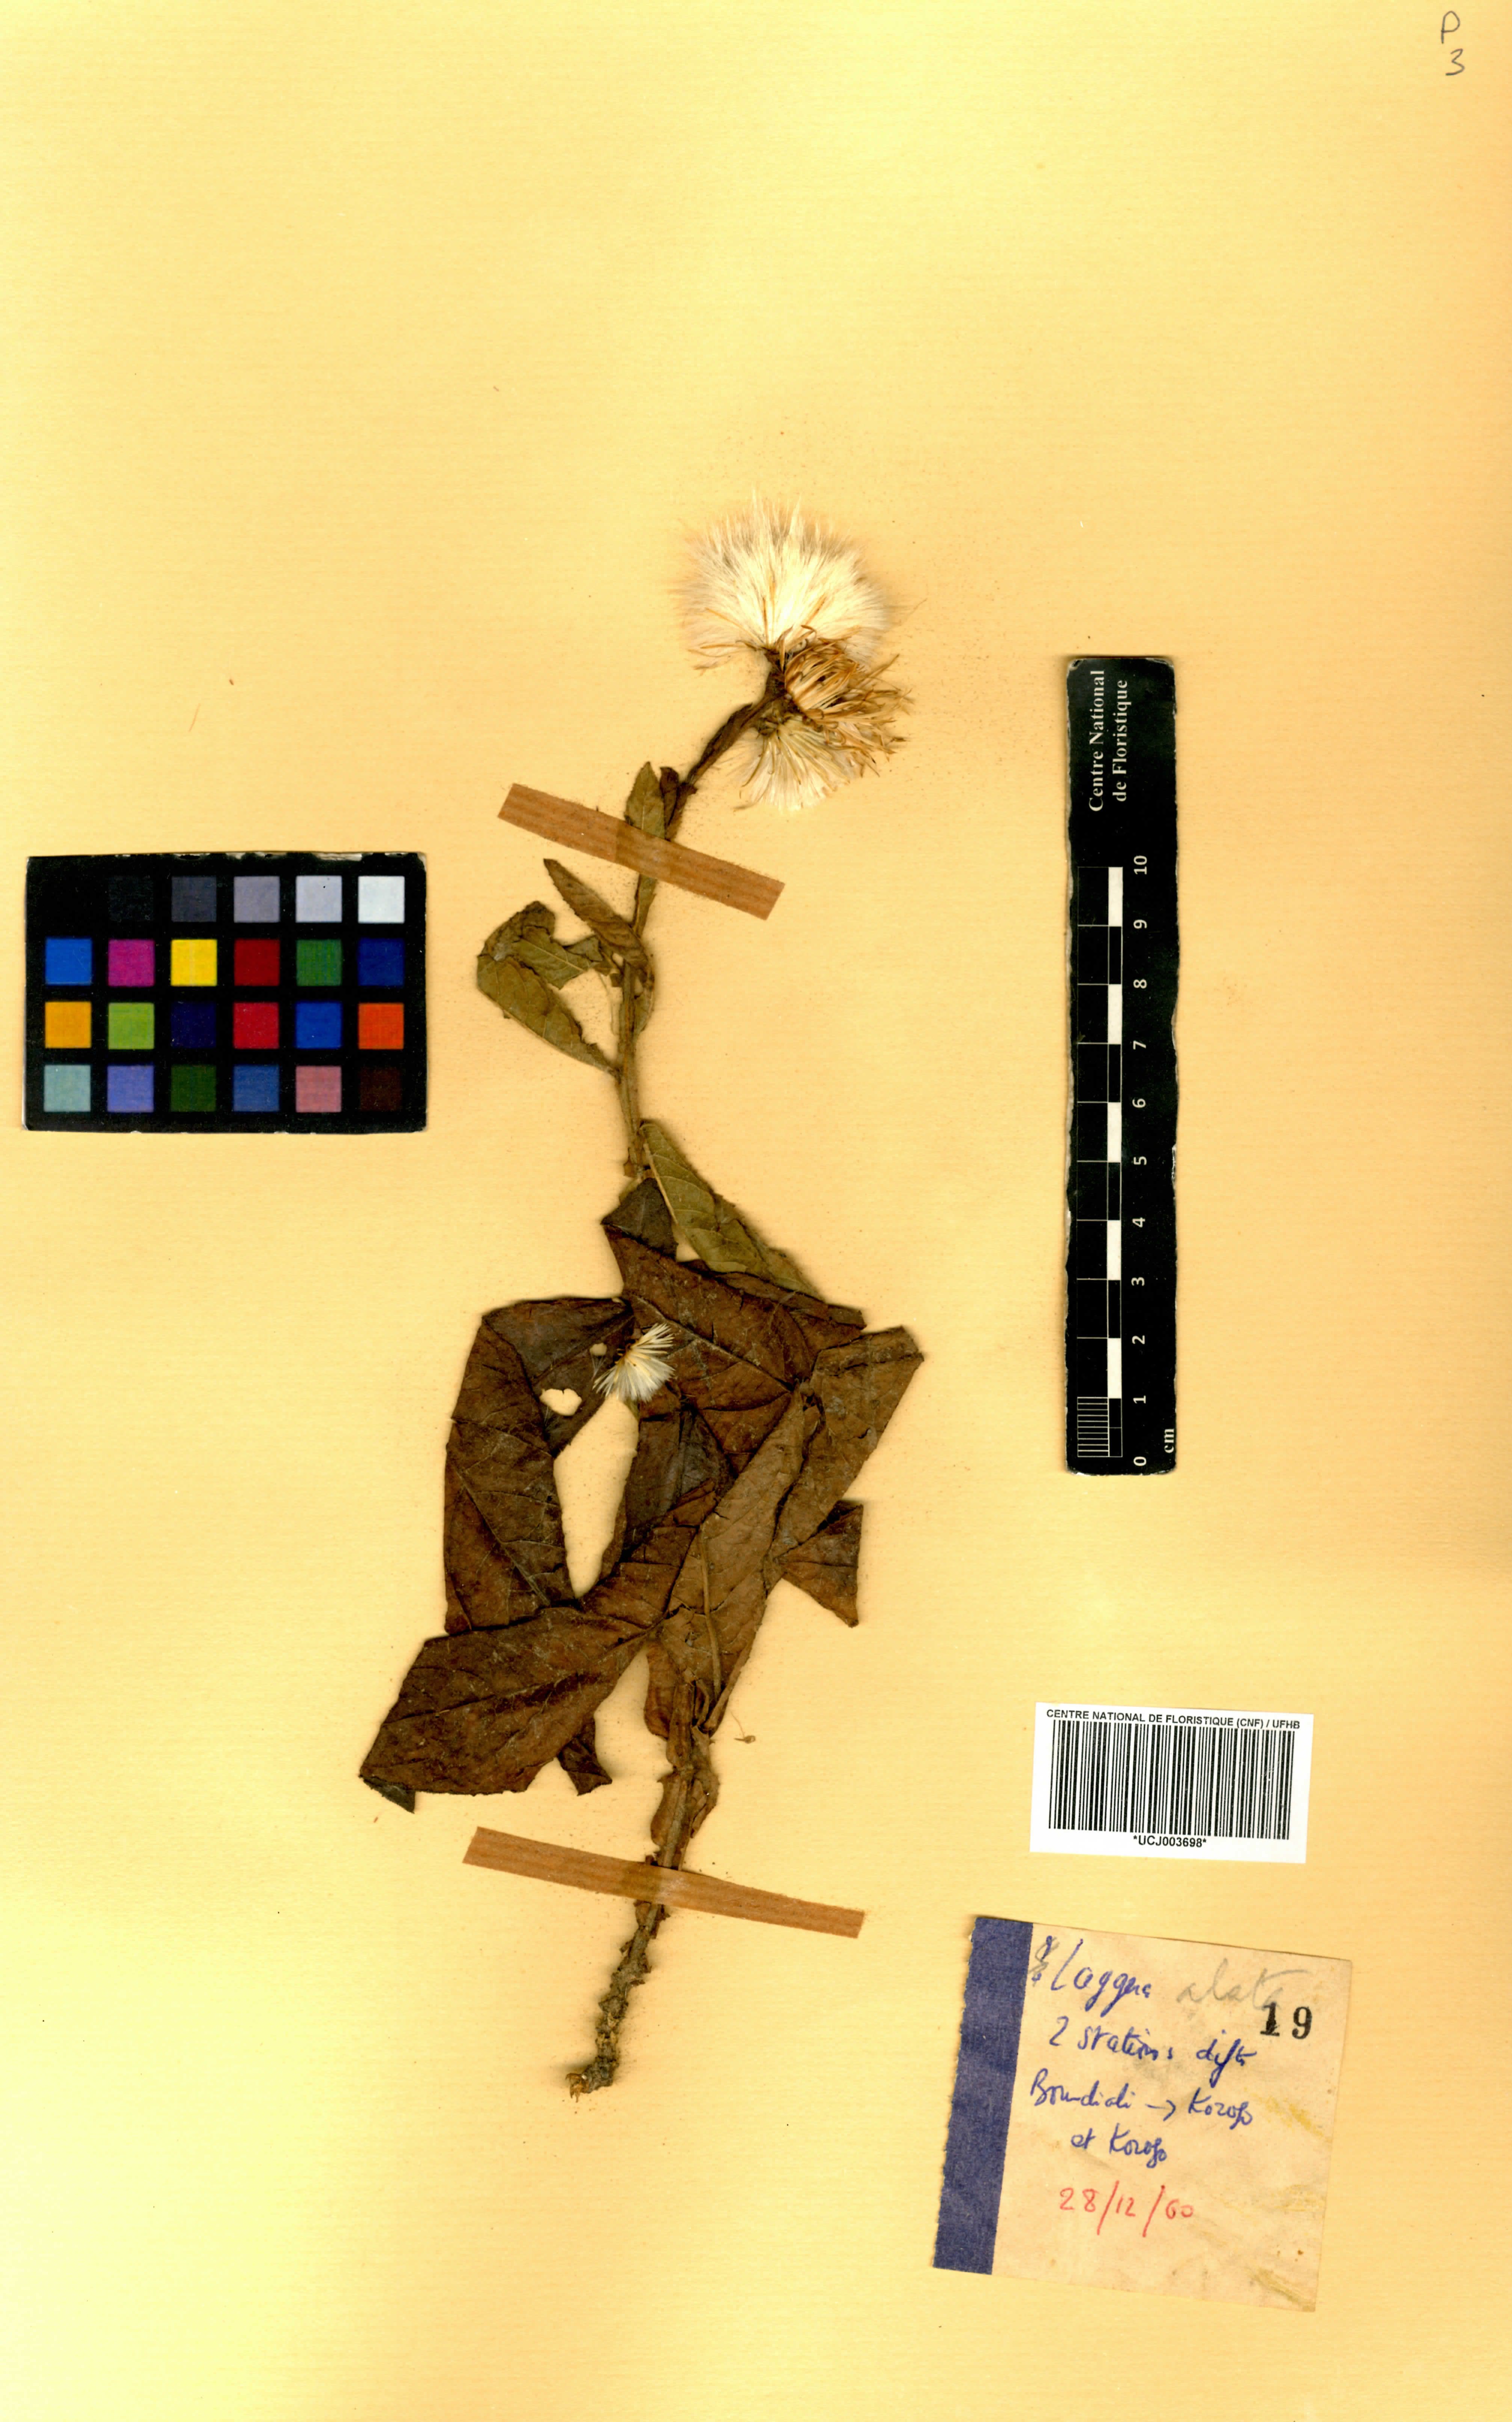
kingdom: Plantae
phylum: Tracheophyta
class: Magnoliopsida
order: Asterales
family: Asteraceae
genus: Laggera
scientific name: Laggera alata
